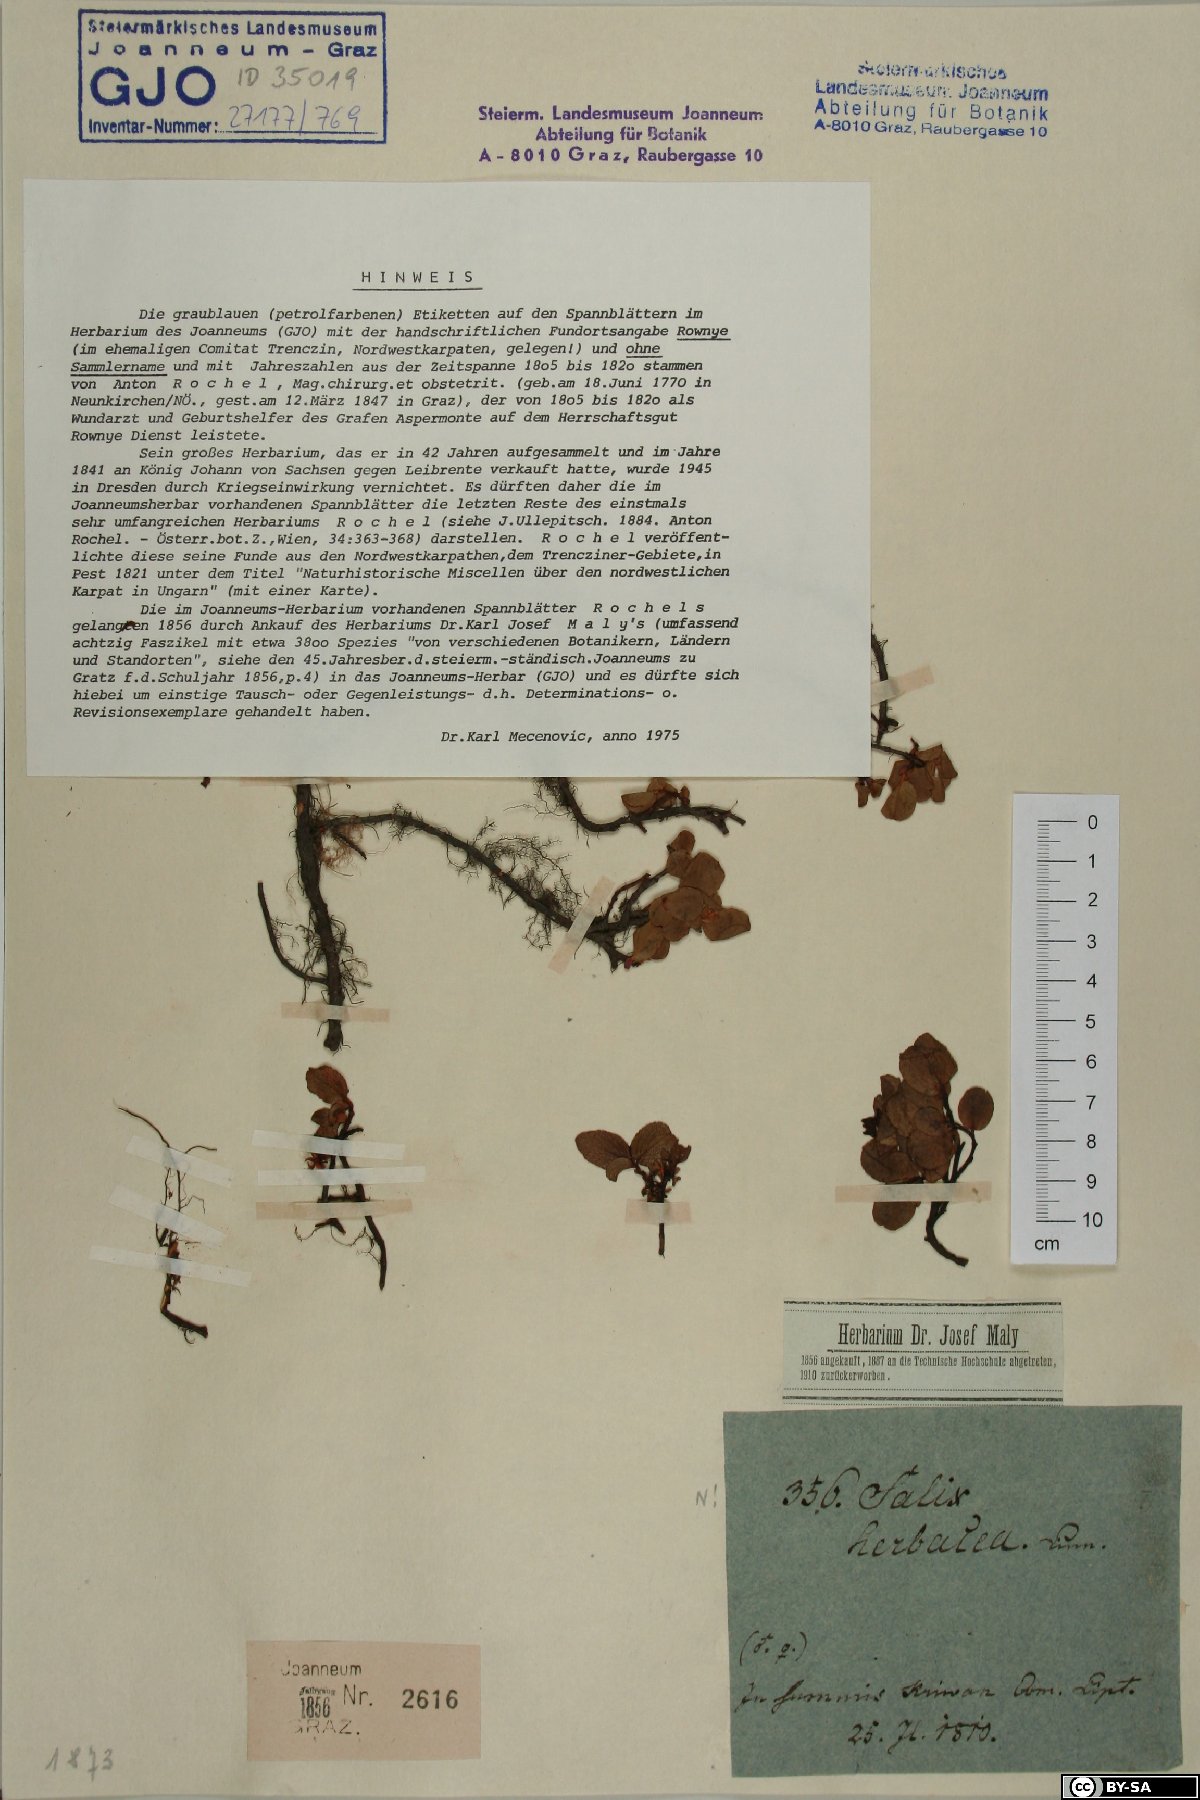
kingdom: Plantae
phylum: Tracheophyta
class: Magnoliopsida
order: Malpighiales
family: Salicaceae
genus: Salix
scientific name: Salix herbacea
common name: Dwarf willow
